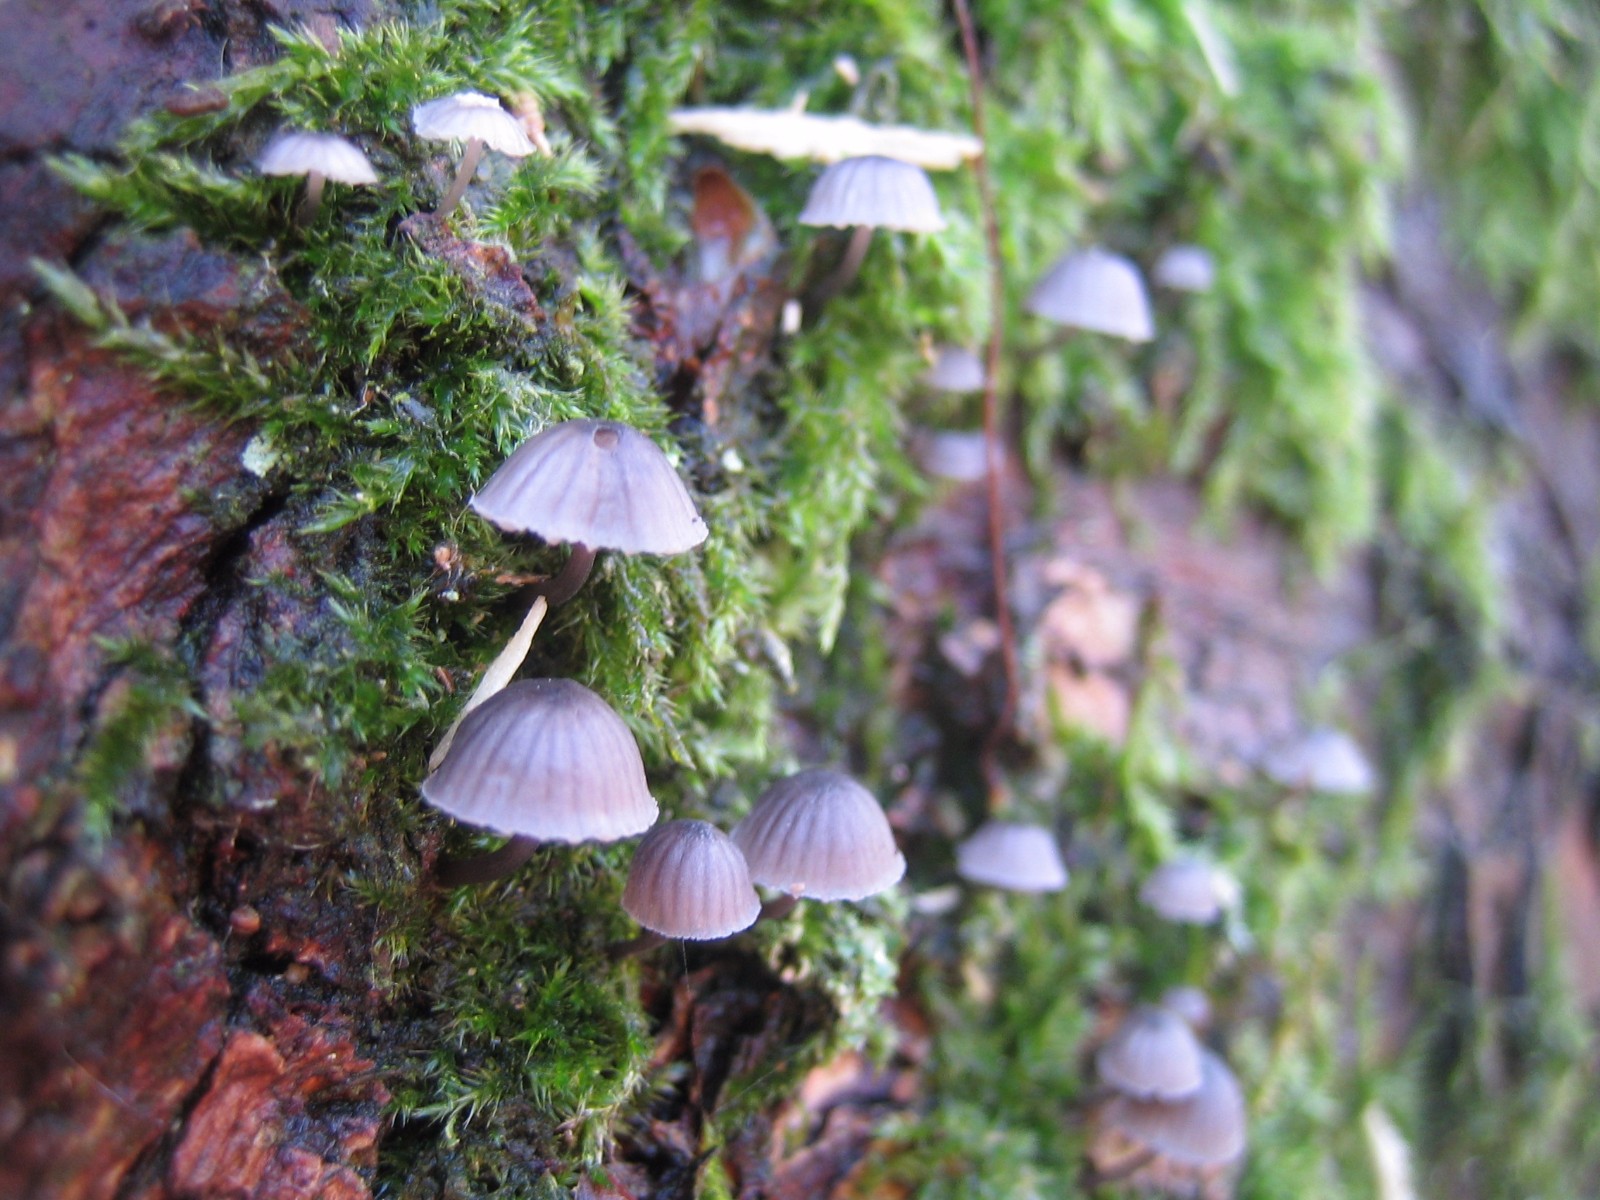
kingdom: Fungi
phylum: Basidiomycota
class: Agaricomycetes
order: Agaricales
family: Mycenaceae
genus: Mycena
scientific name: Mycena pseudocorticola
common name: gråblå bark-huesvamp
